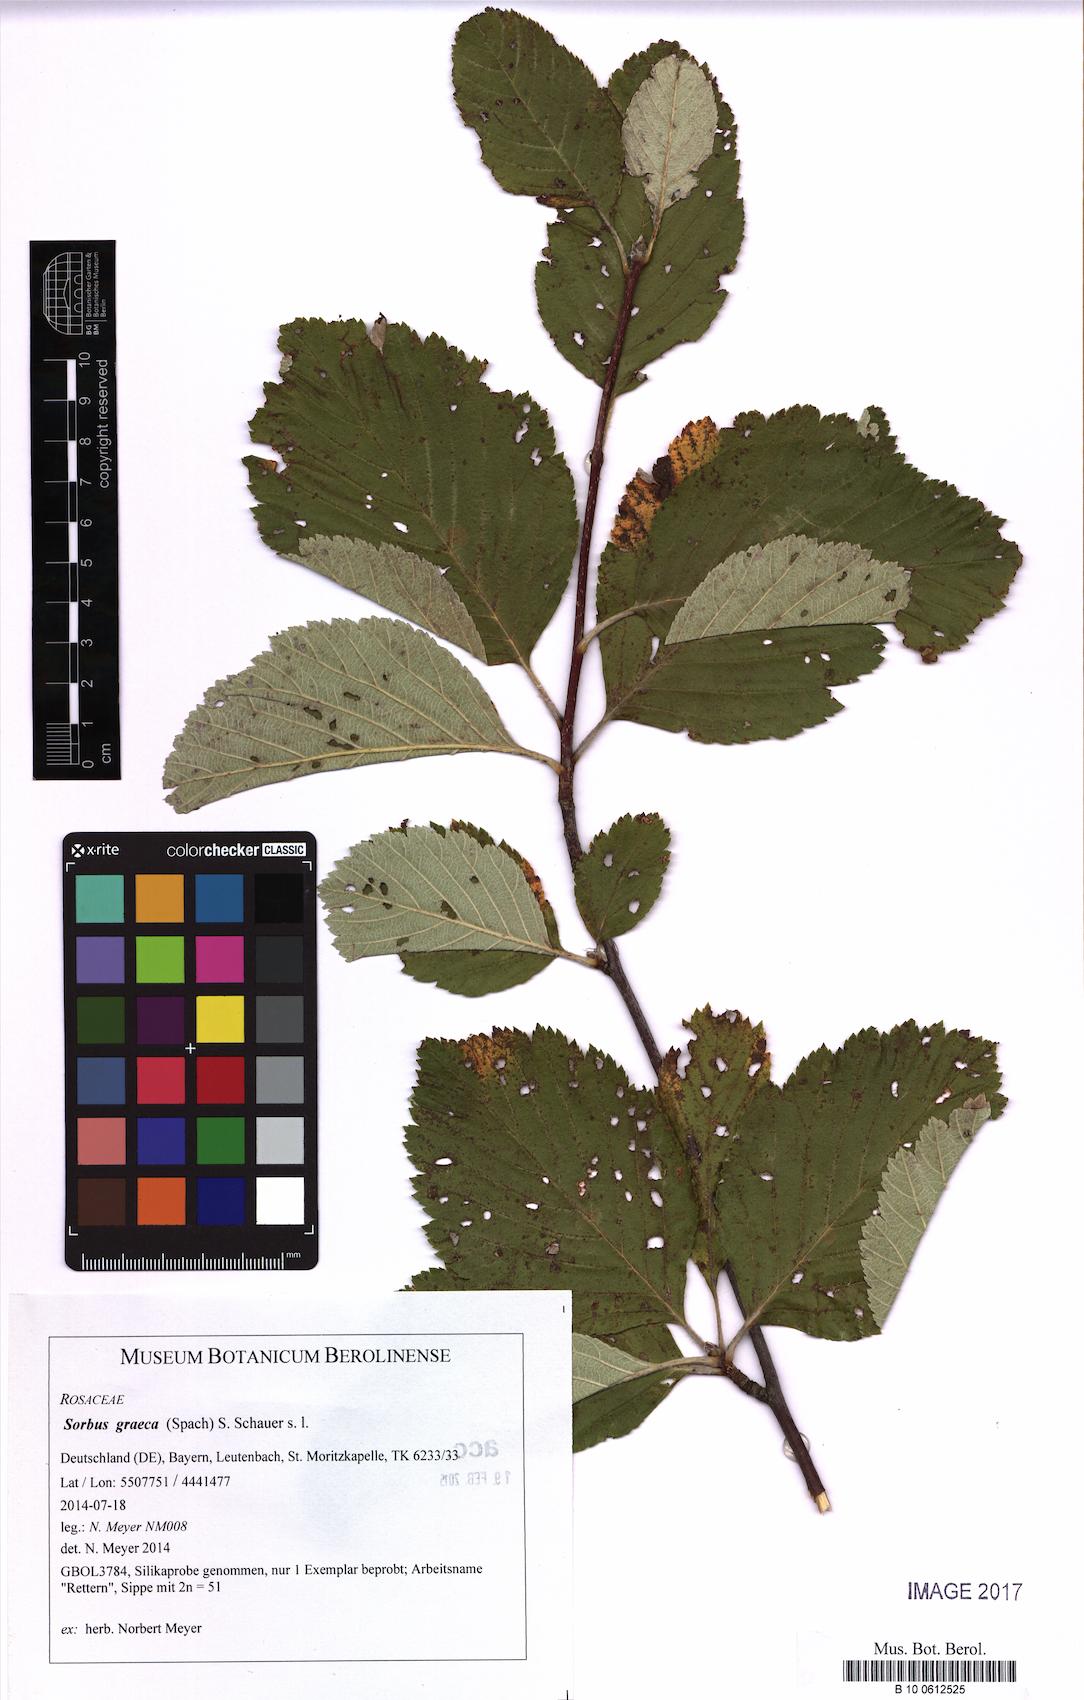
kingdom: Plantae
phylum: Tracheophyta
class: Magnoliopsida
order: Rosales
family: Rosaceae
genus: Aria
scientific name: Aria graeca
